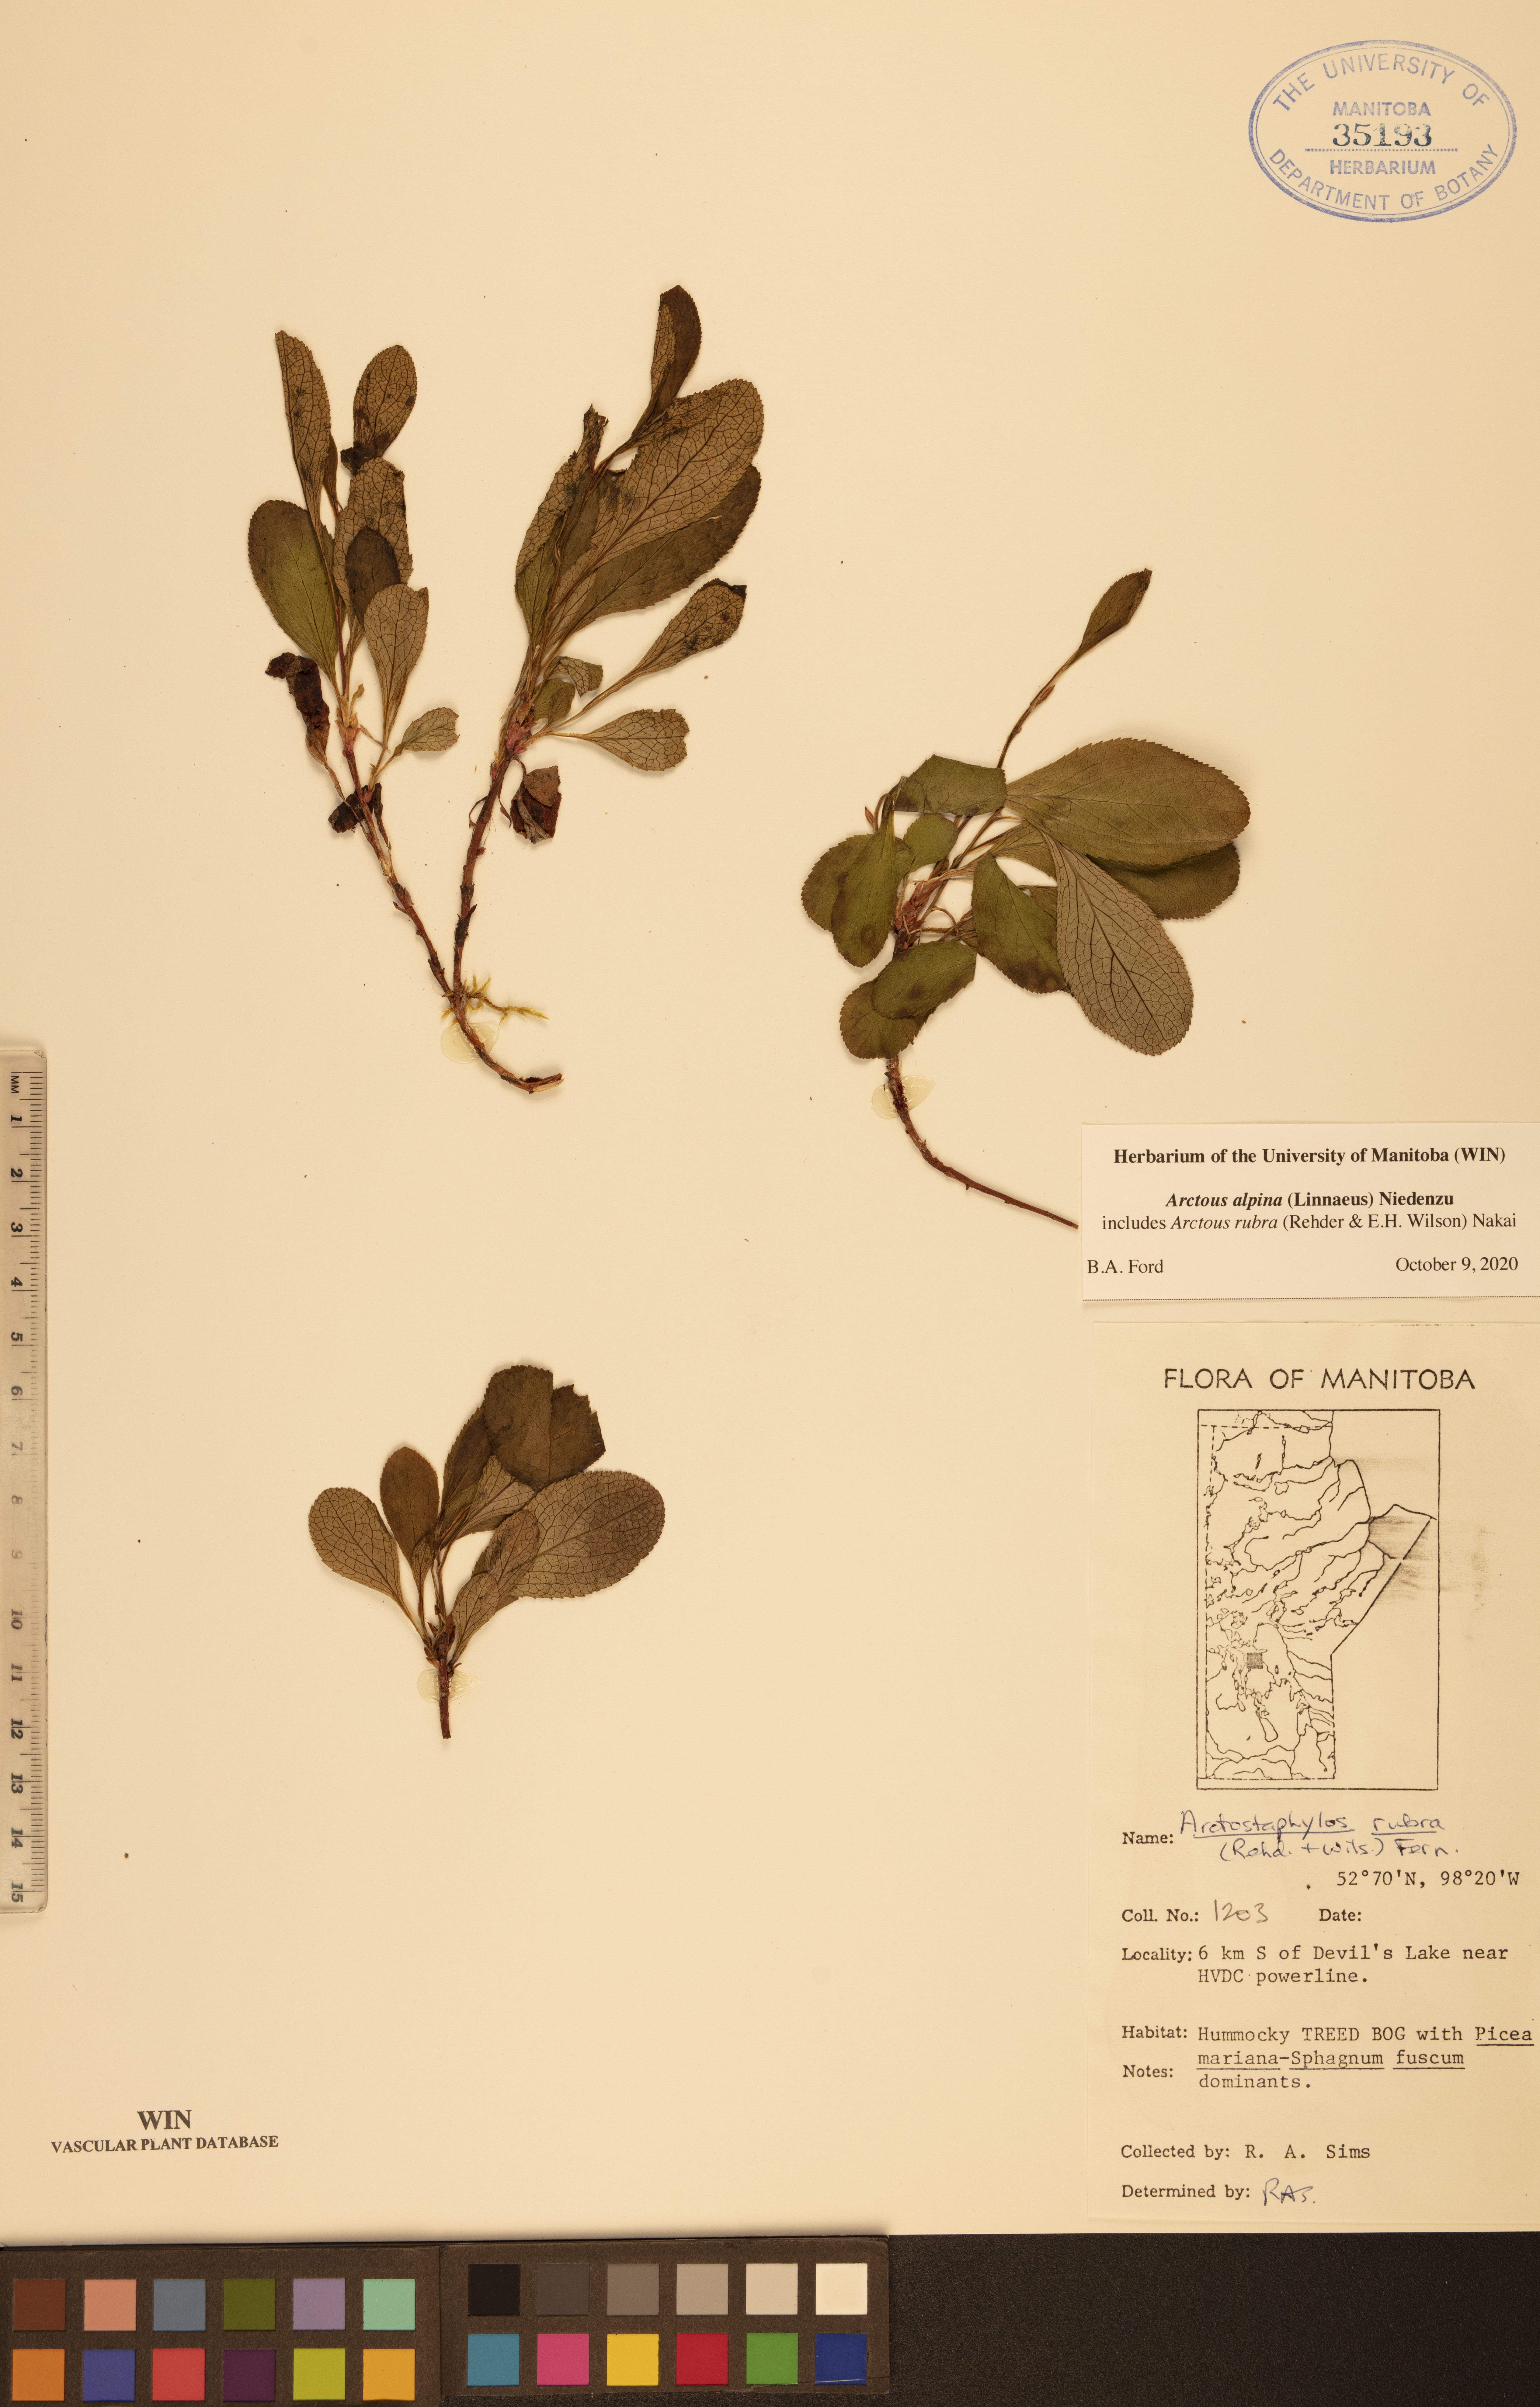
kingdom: Plantae
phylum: Tracheophyta
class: Magnoliopsida
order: Ericales
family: Ericaceae
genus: Arctostaphylos
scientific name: Arctostaphylos alpinus
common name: Alpine bearberry
